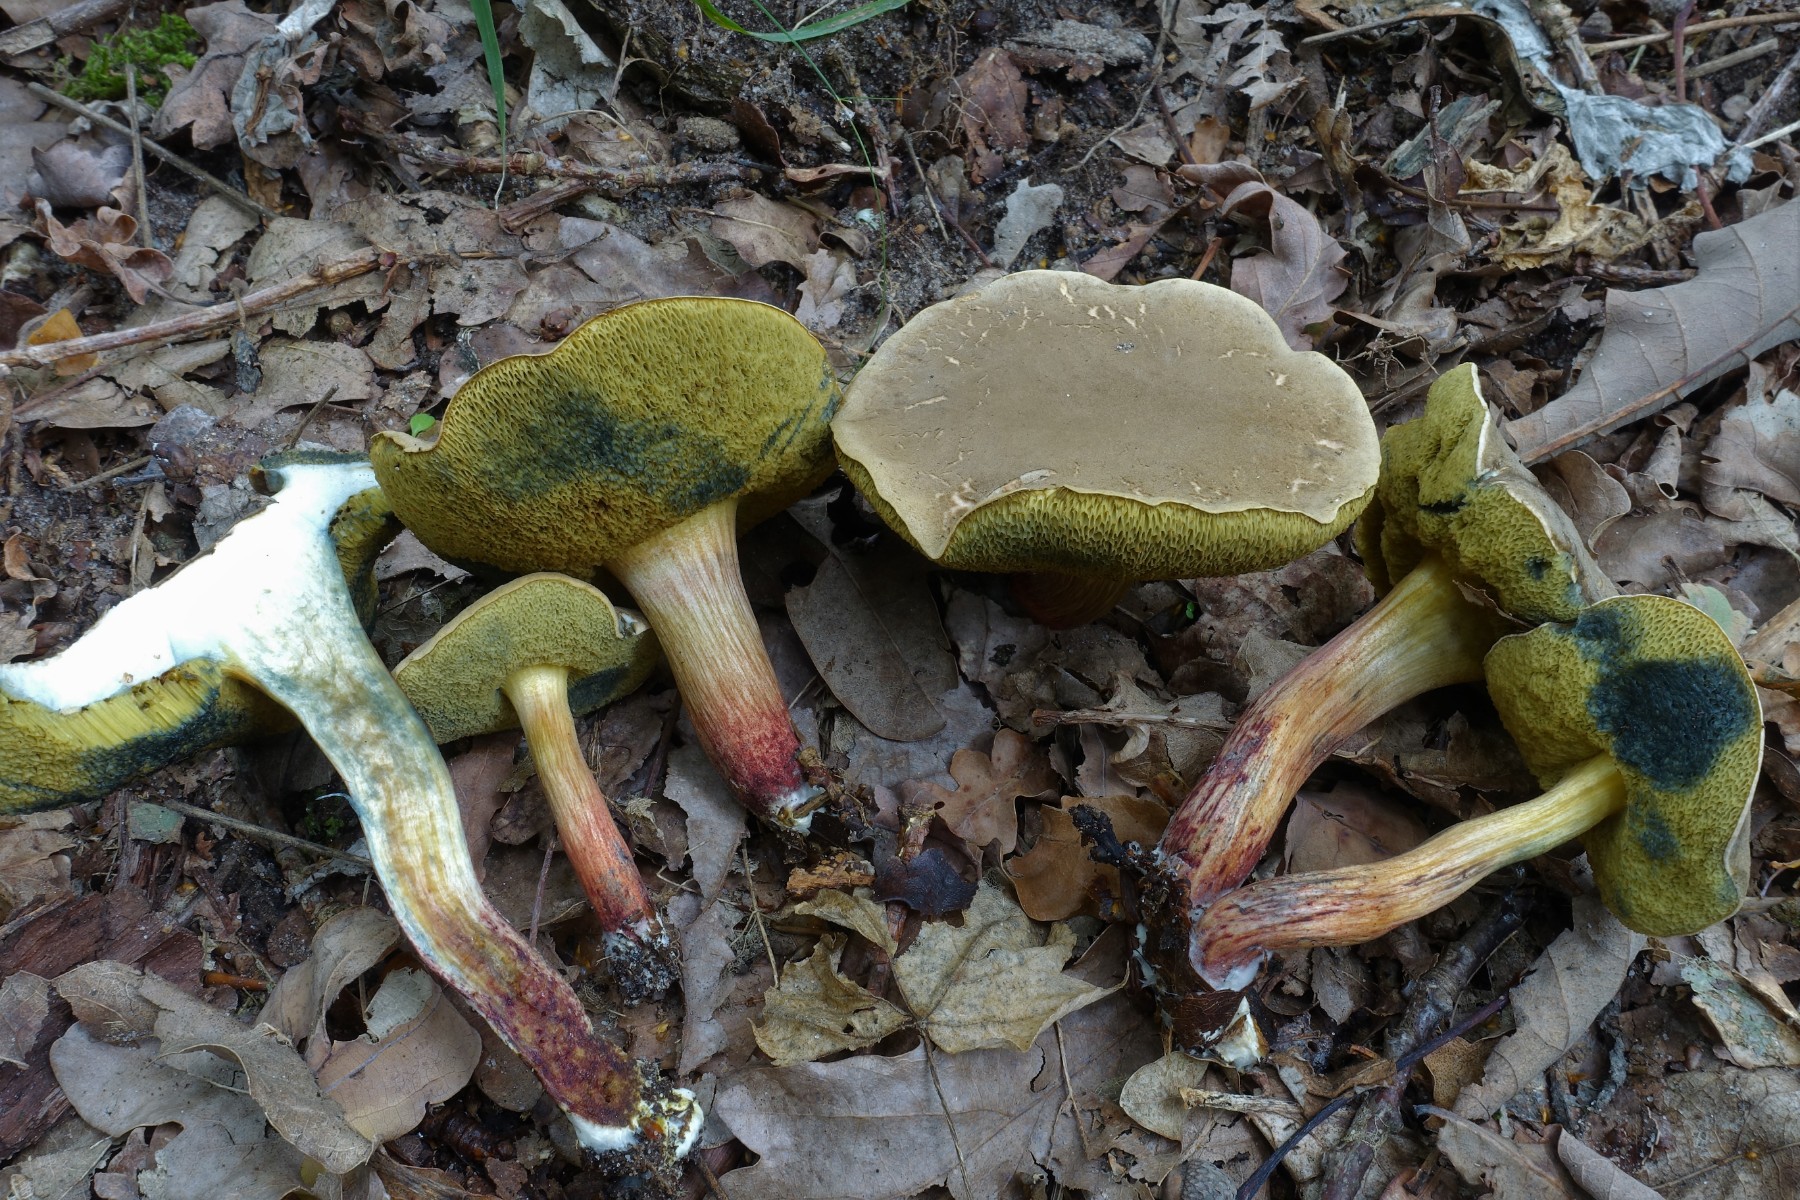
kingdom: Fungi
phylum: Basidiomycota
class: Agaricomycetes
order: Boletales
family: Boletaceae
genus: Xerocomellus
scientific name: Xerocomellus cisalpinus
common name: finsprukken rørhat
